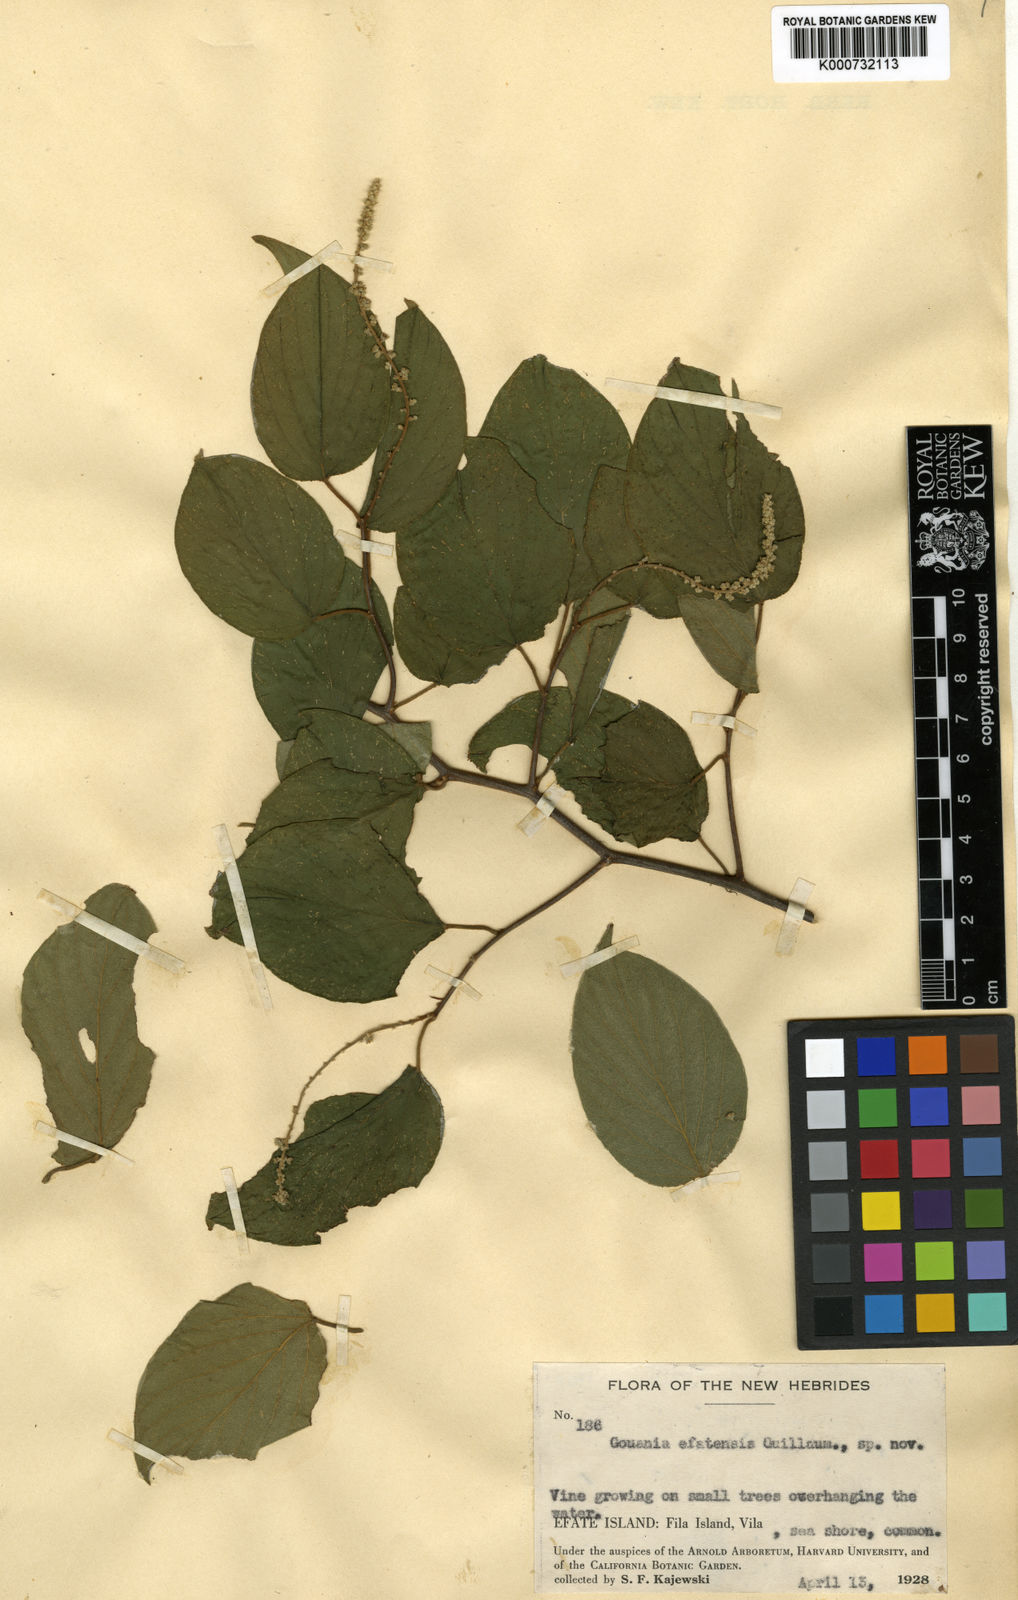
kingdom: Plantae
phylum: Tracheophyta
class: Magnoliopsida
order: Rosales
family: Rhamnaceae
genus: Gouania
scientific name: Gouania efatensis
